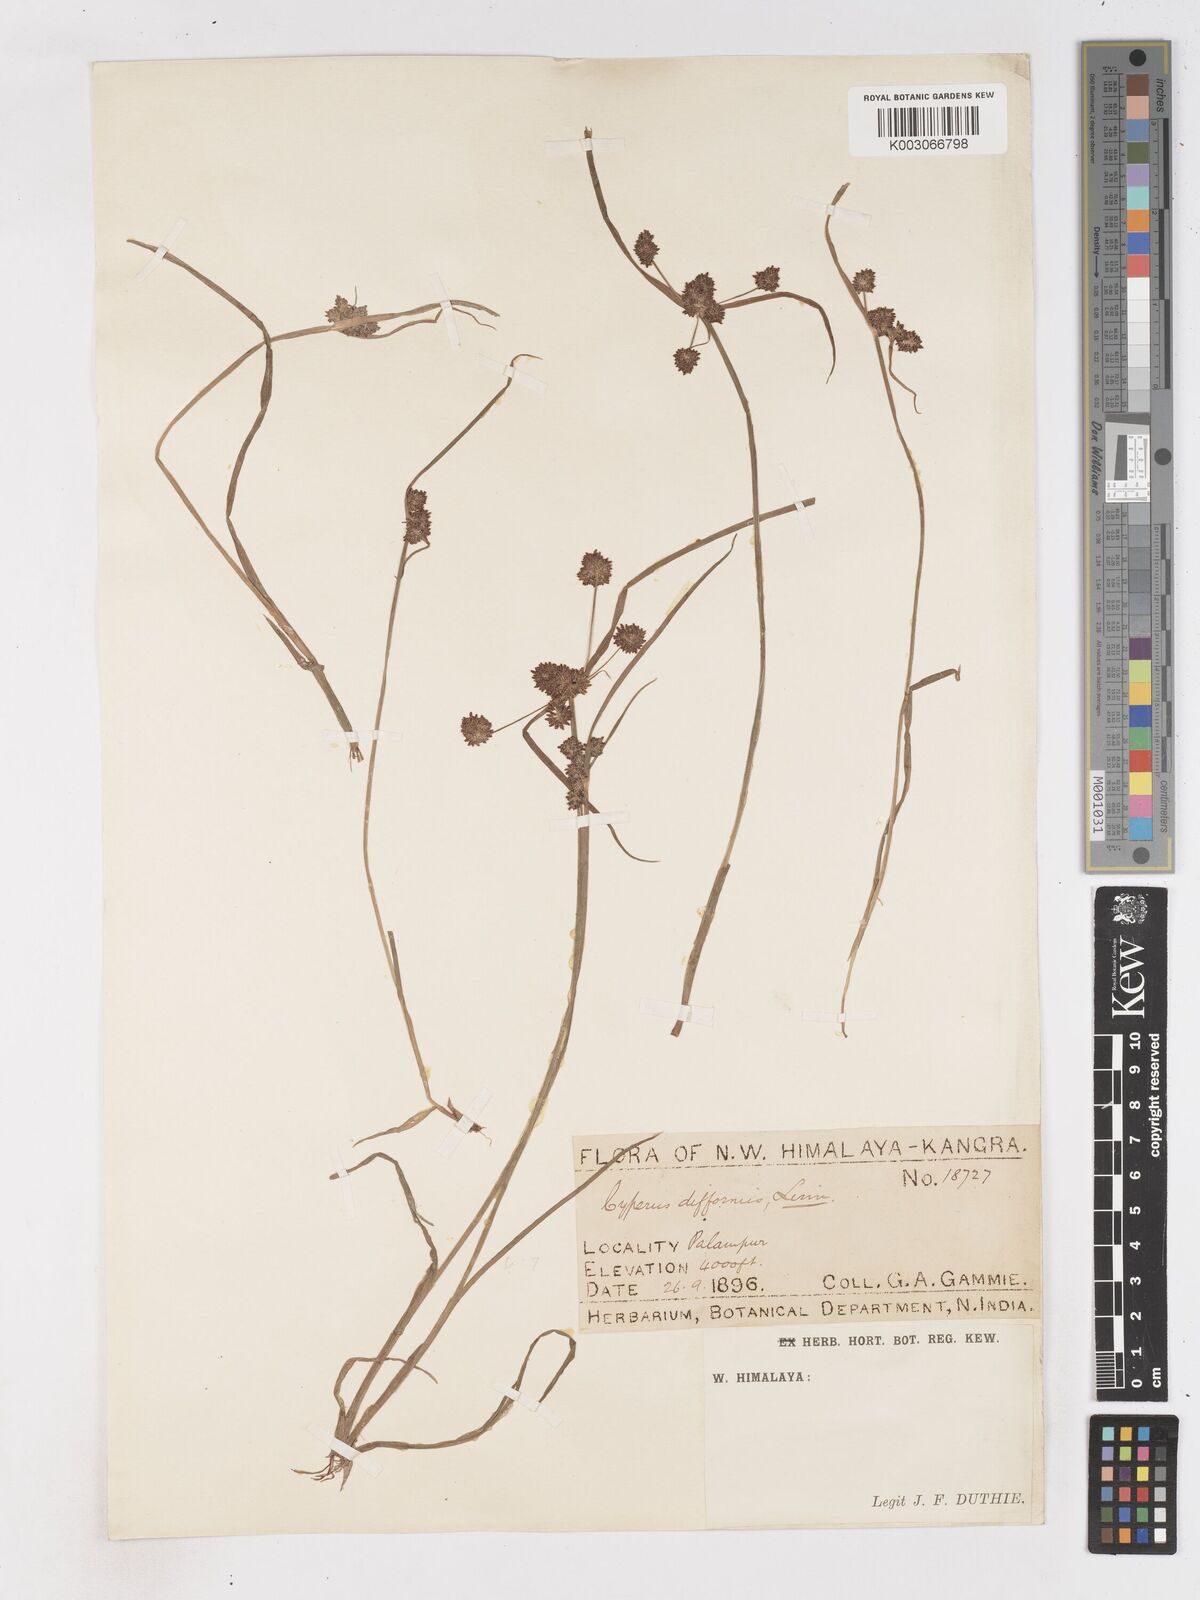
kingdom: Plantae
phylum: Tracheophyta
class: Liliopsida
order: Poales
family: Cyperaceae
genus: Cyperus
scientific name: Cyperus difformis
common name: Variable flatsedge
